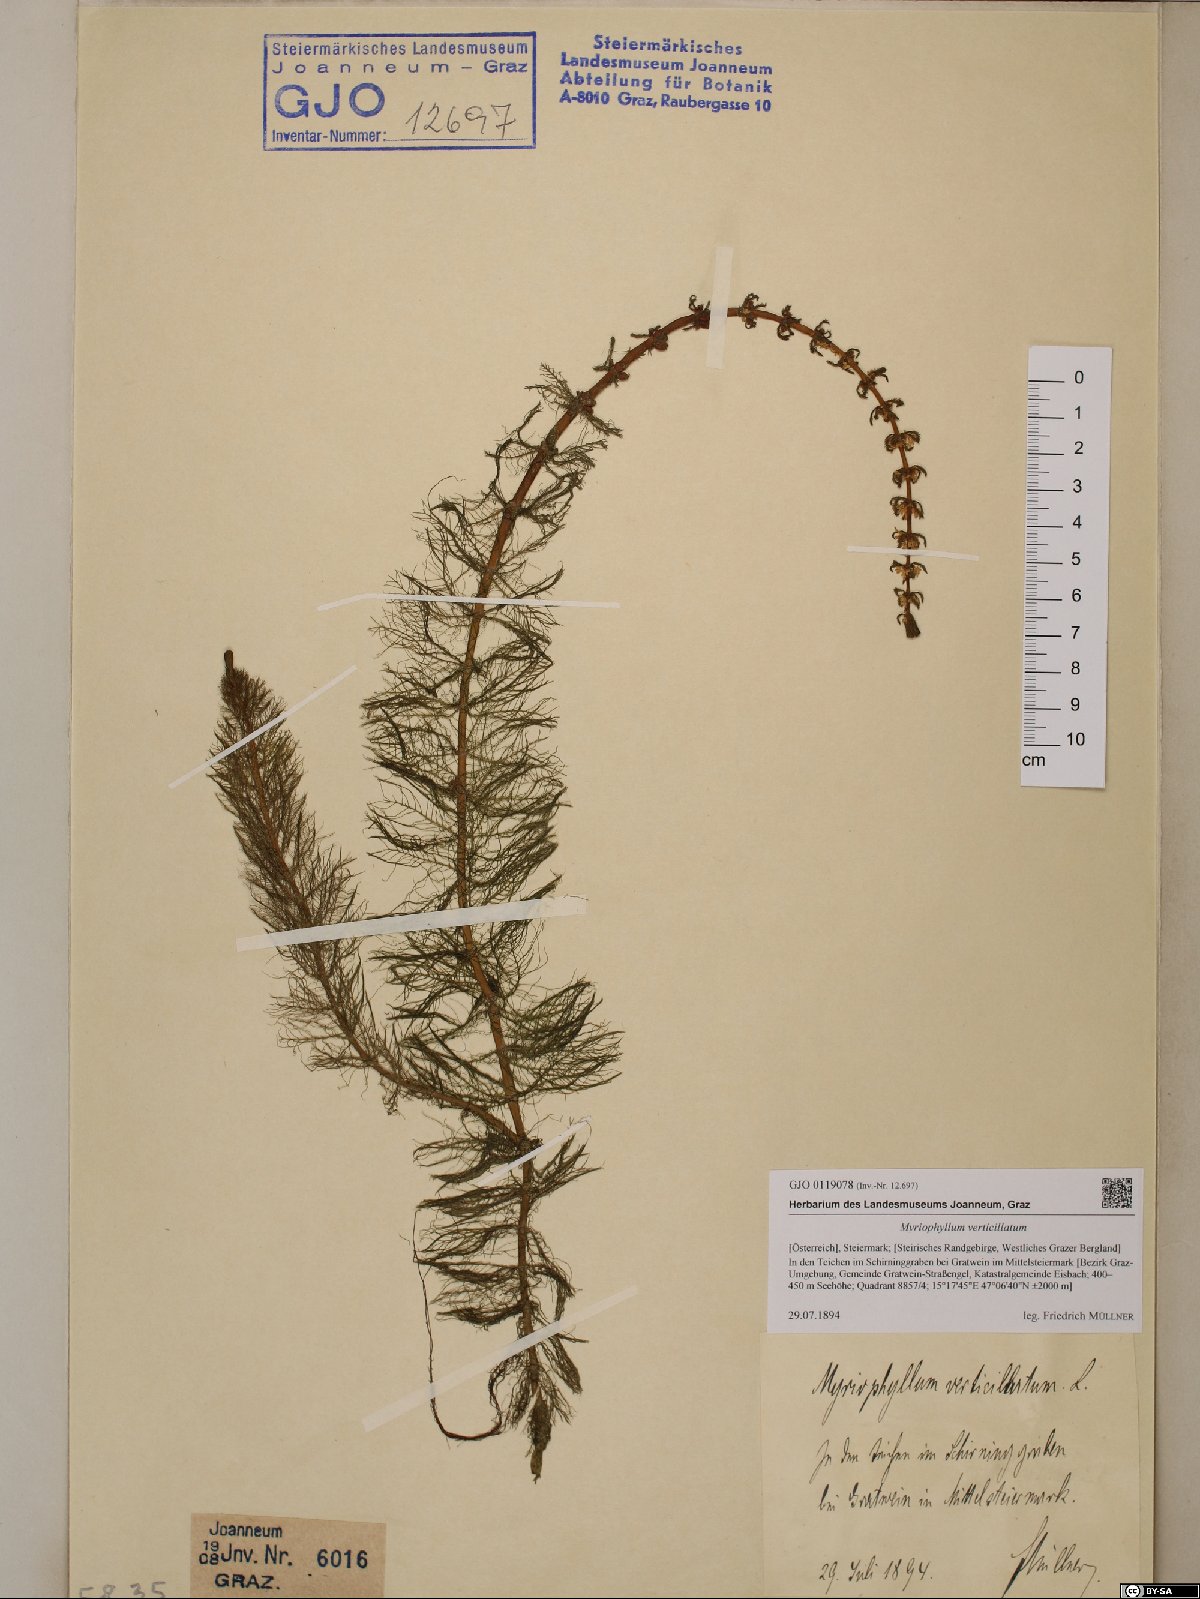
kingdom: Plantae
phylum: Tracheophyta
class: Magnoliopsida
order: Saxifragales
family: Haloragaceae
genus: Myriophyllum
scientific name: Myriophyllum verticillatum
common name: Whorled water-milfoil
